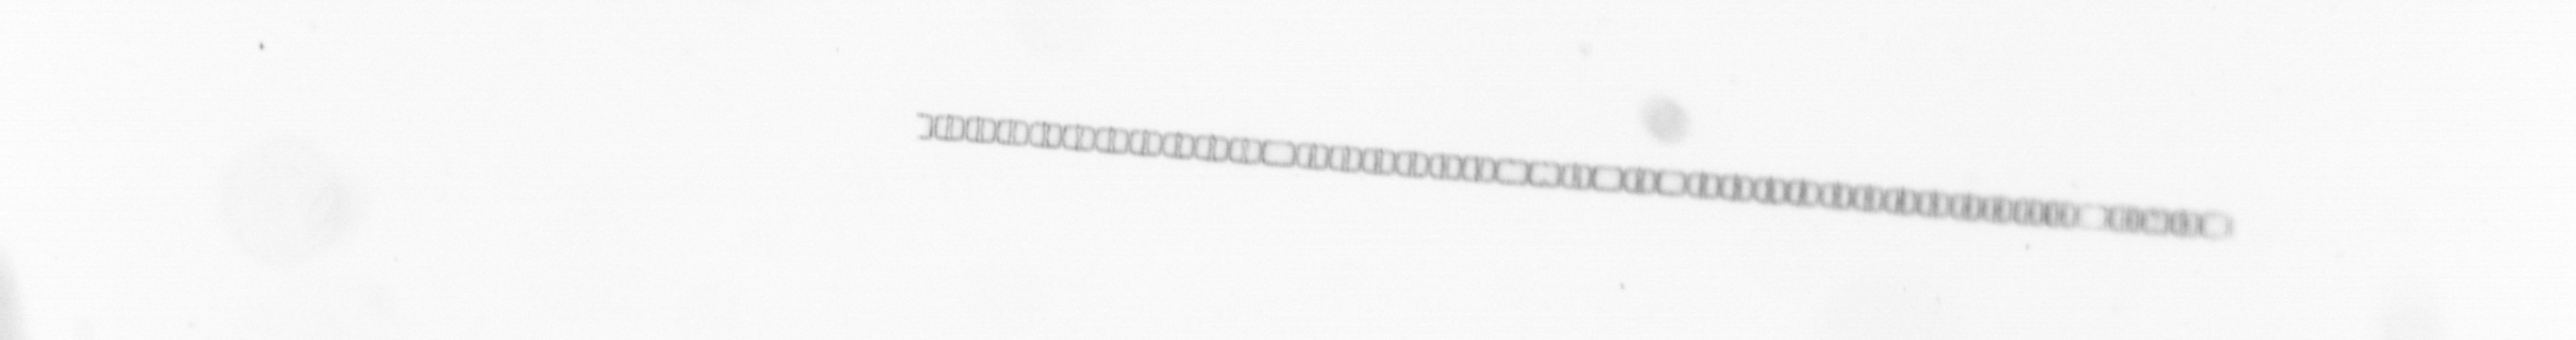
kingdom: Chromista
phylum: Ochrophyta
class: Bacillariophyceae
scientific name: Bacillariophyceae
